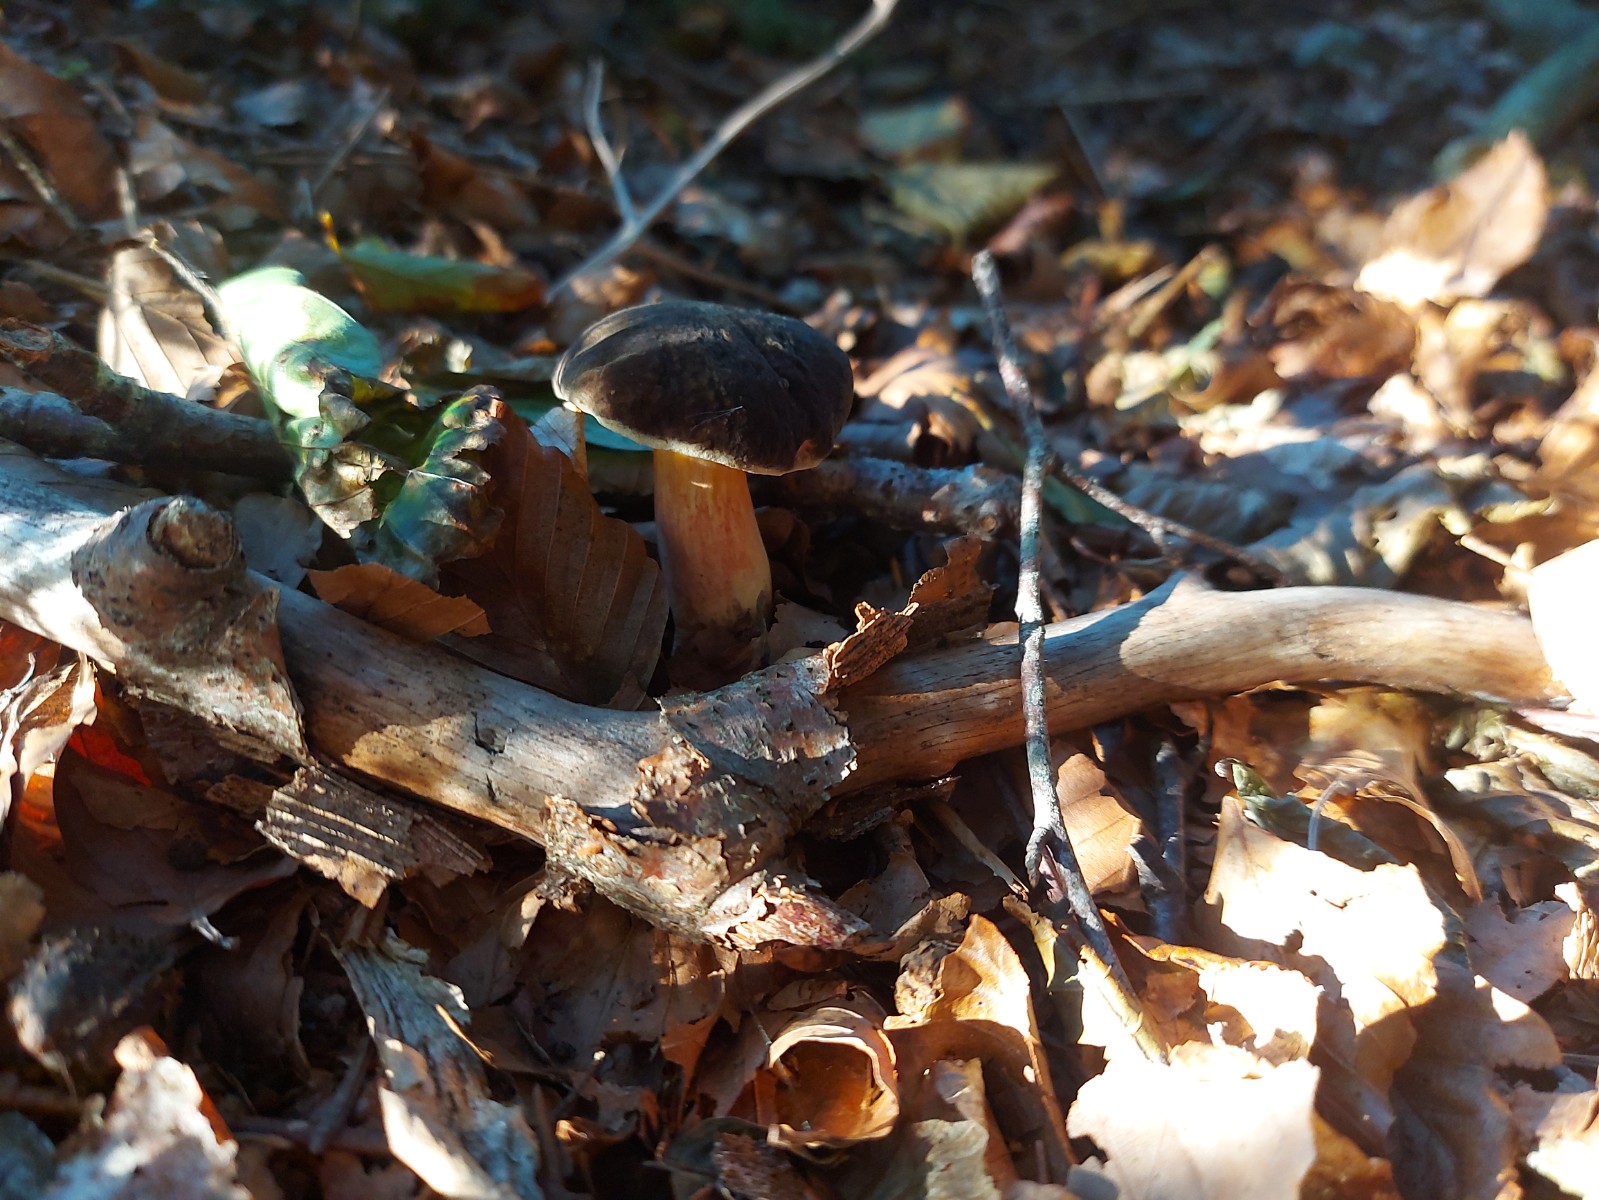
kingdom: Fungi
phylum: Basidiomycota
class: Agaricomycetes
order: Boletales
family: Boletaceae
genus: Xerocomellus
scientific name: Xerocomellus chrysenteron
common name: rødsprukken rørhat
